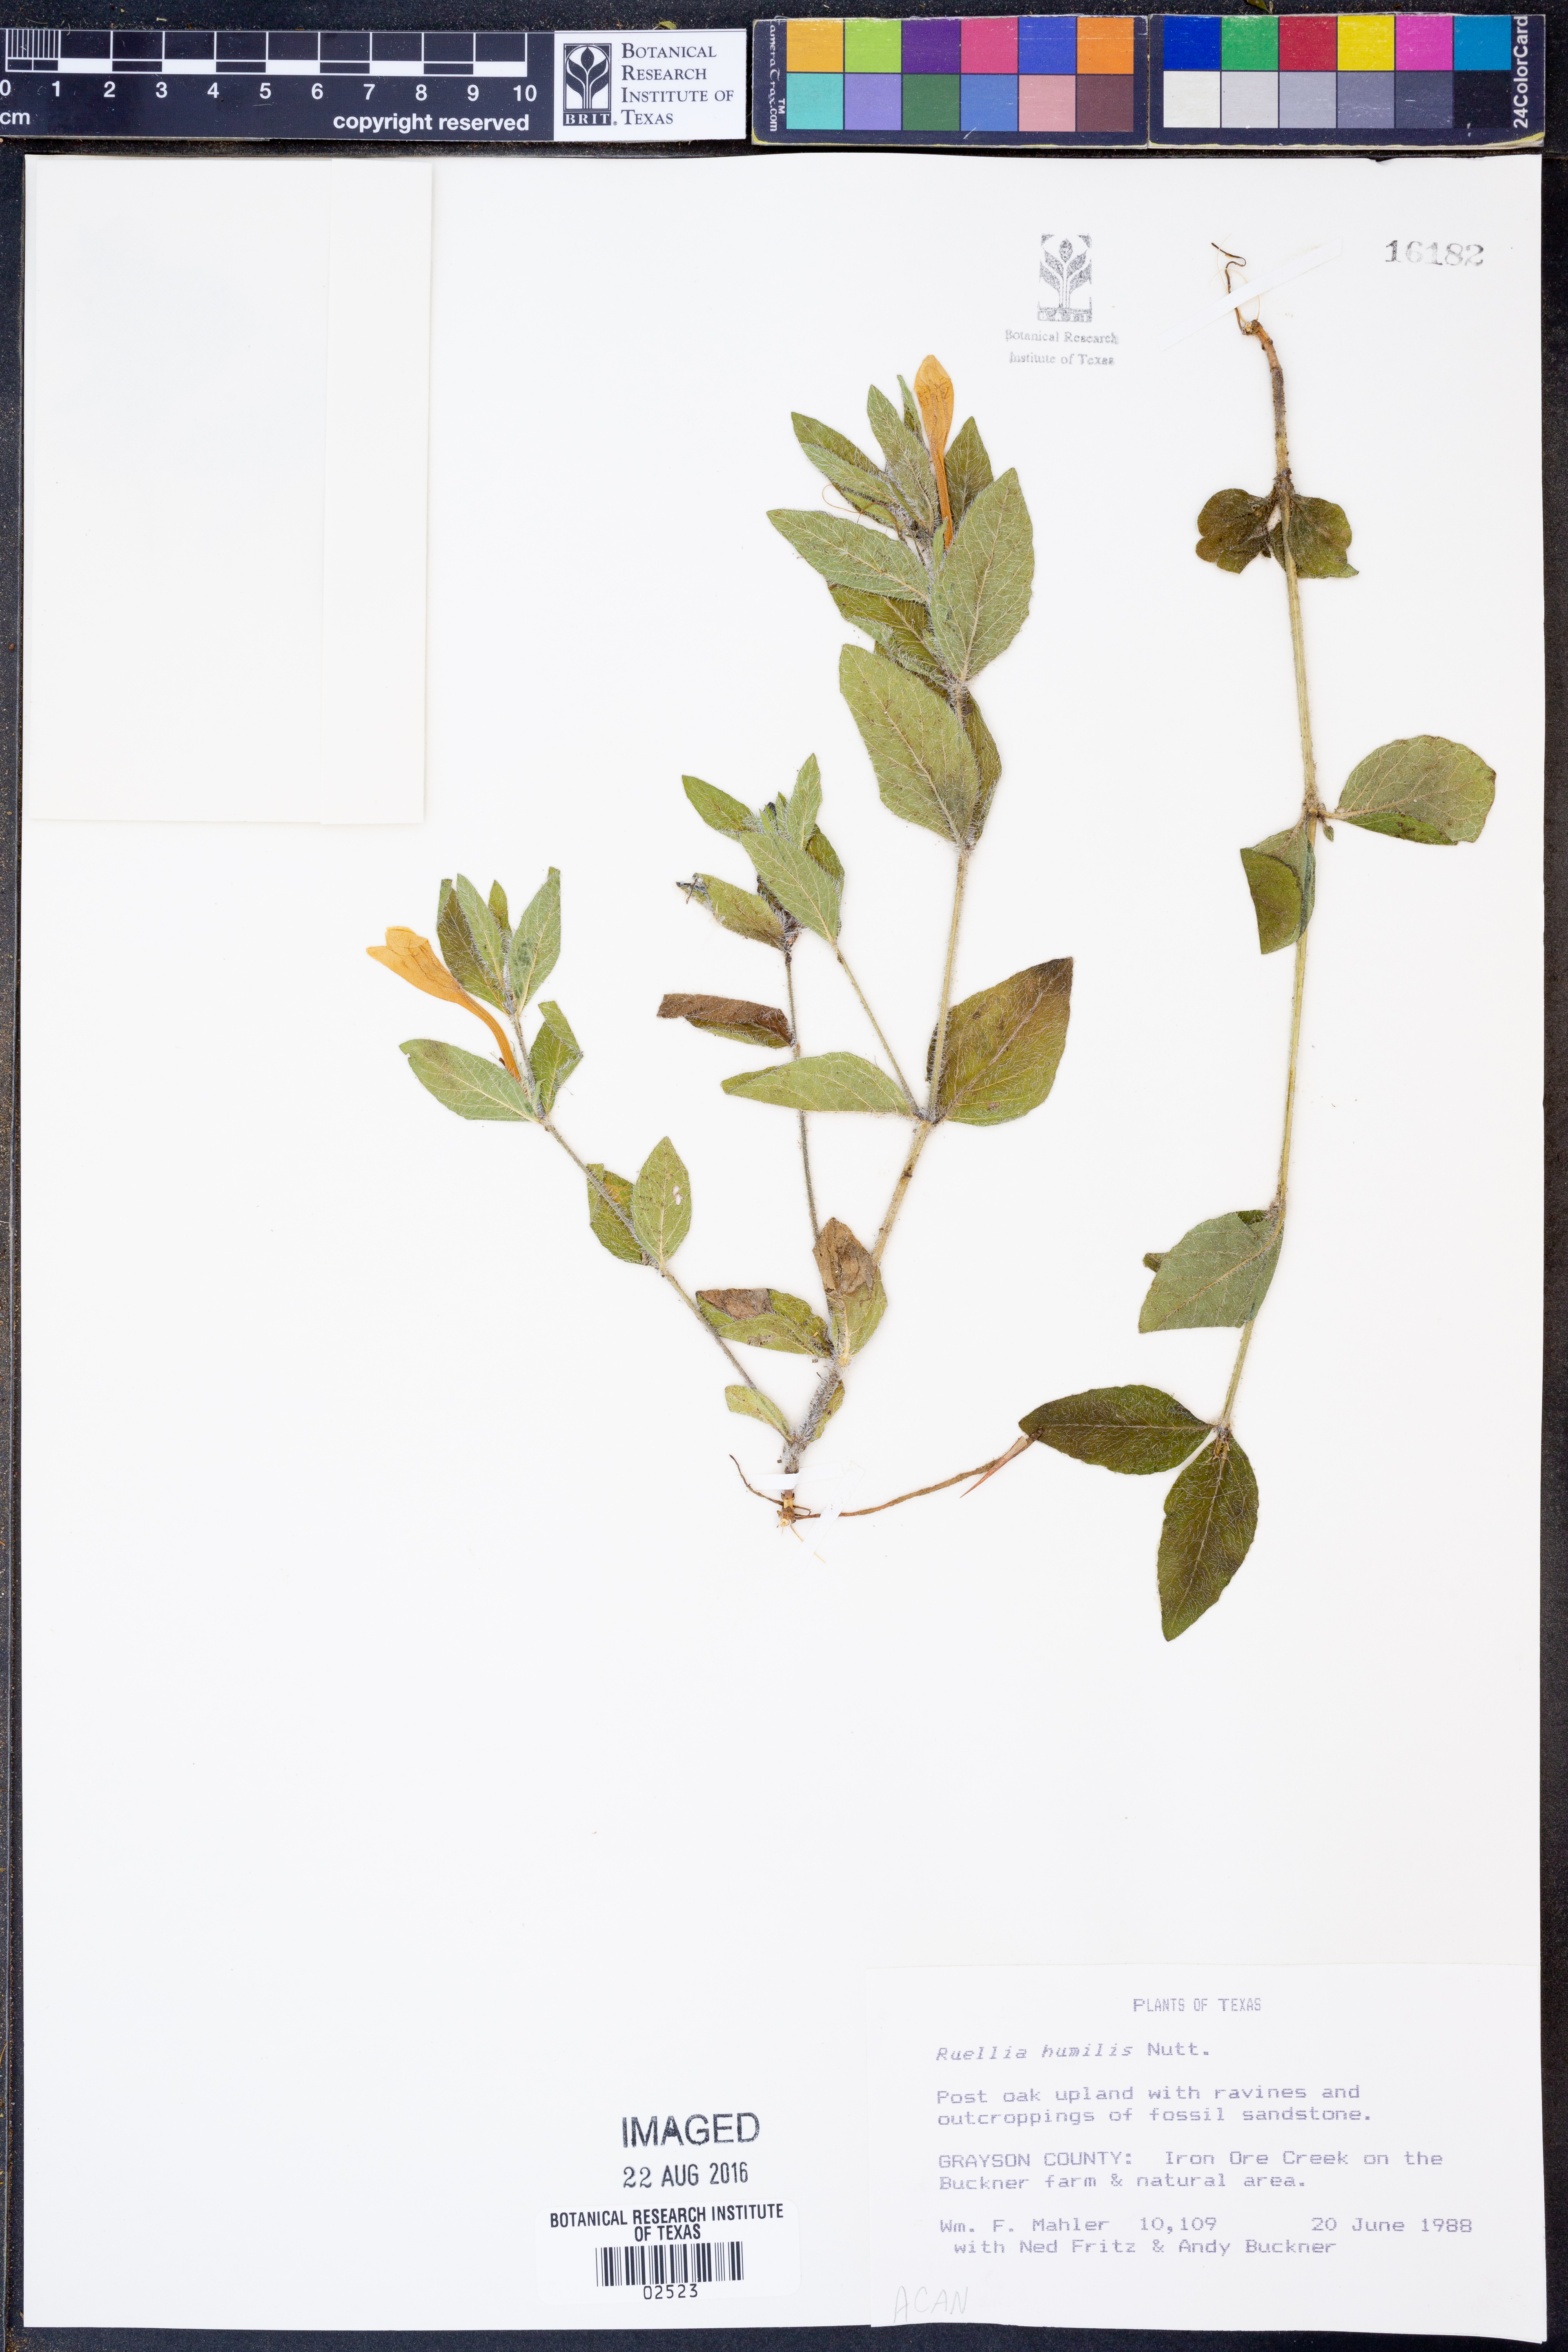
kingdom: Plantae
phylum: Tracheophyta
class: Magnoliopsida
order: Lamiales
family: Acanthaceae
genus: Ruellia
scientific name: Ruellia humilis
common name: Fringe-leaf ruellia
